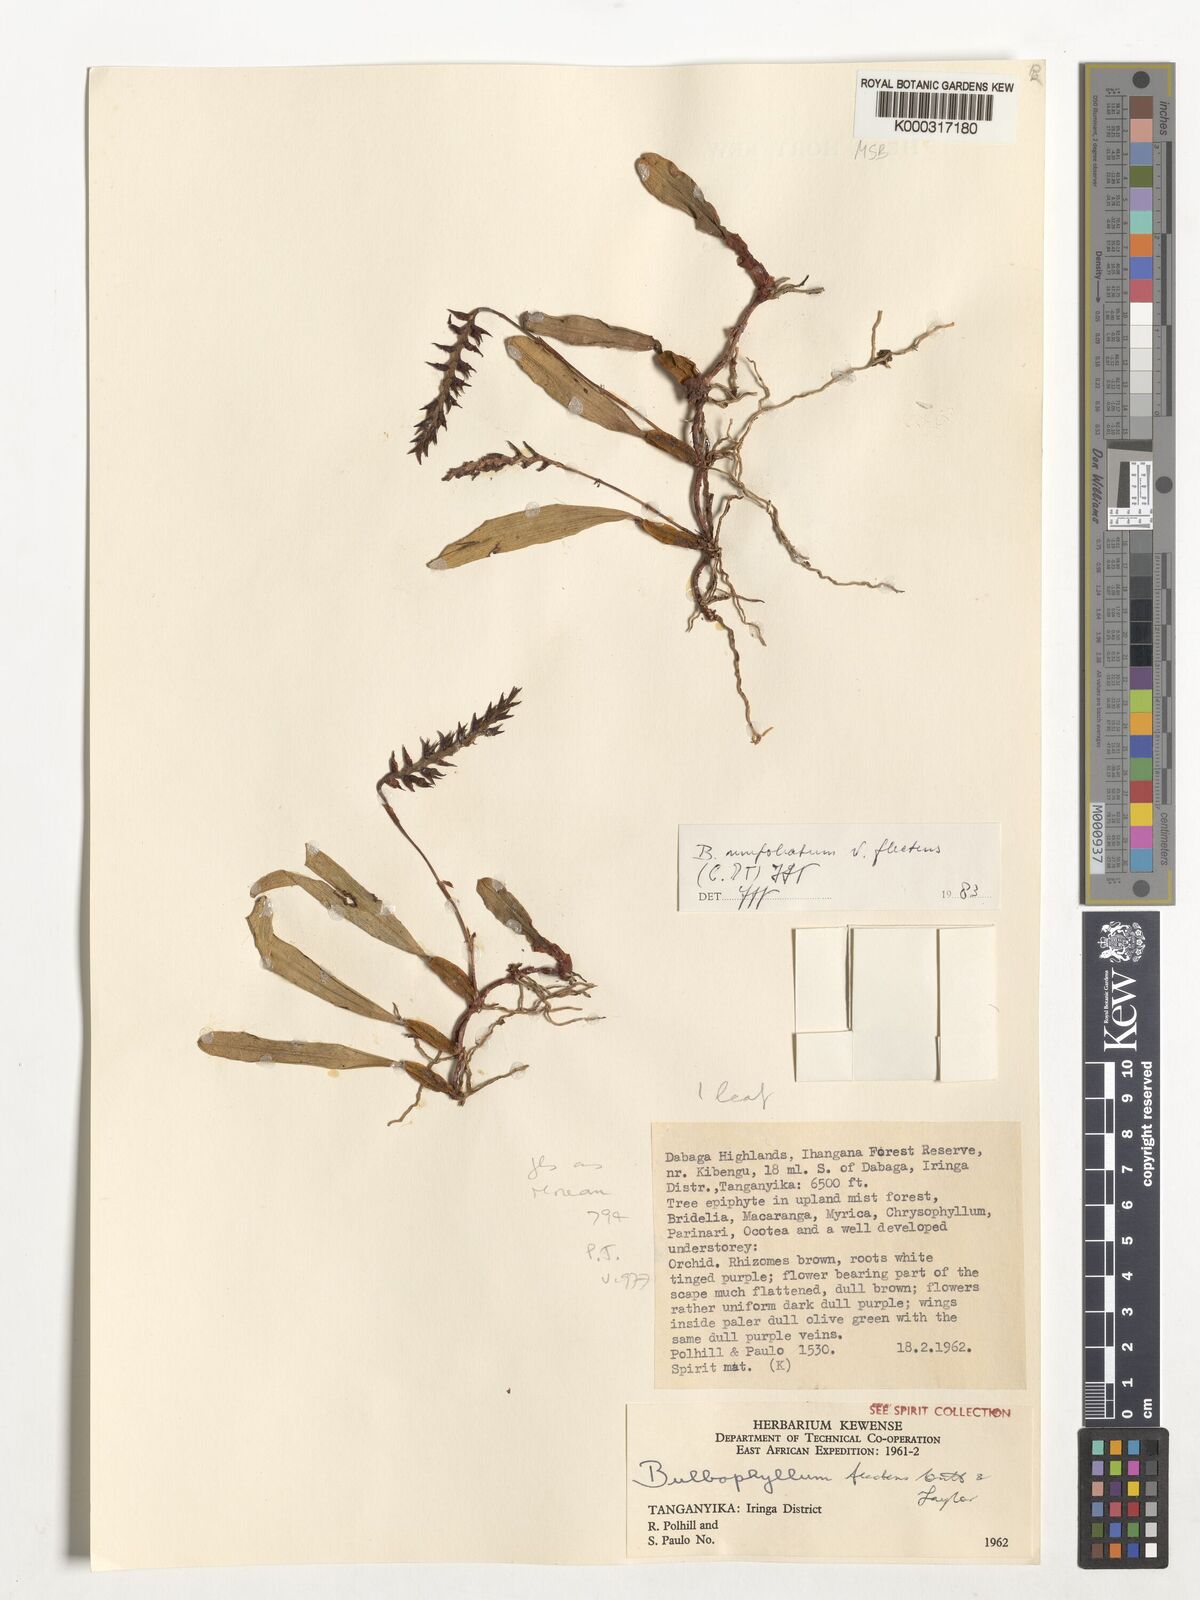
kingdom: Plantae
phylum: Tracheophyta
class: Liliopsida
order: Asparagales
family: Orchidaceae
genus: Bulbophyllum
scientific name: Bulbophyllum unifoliatum
